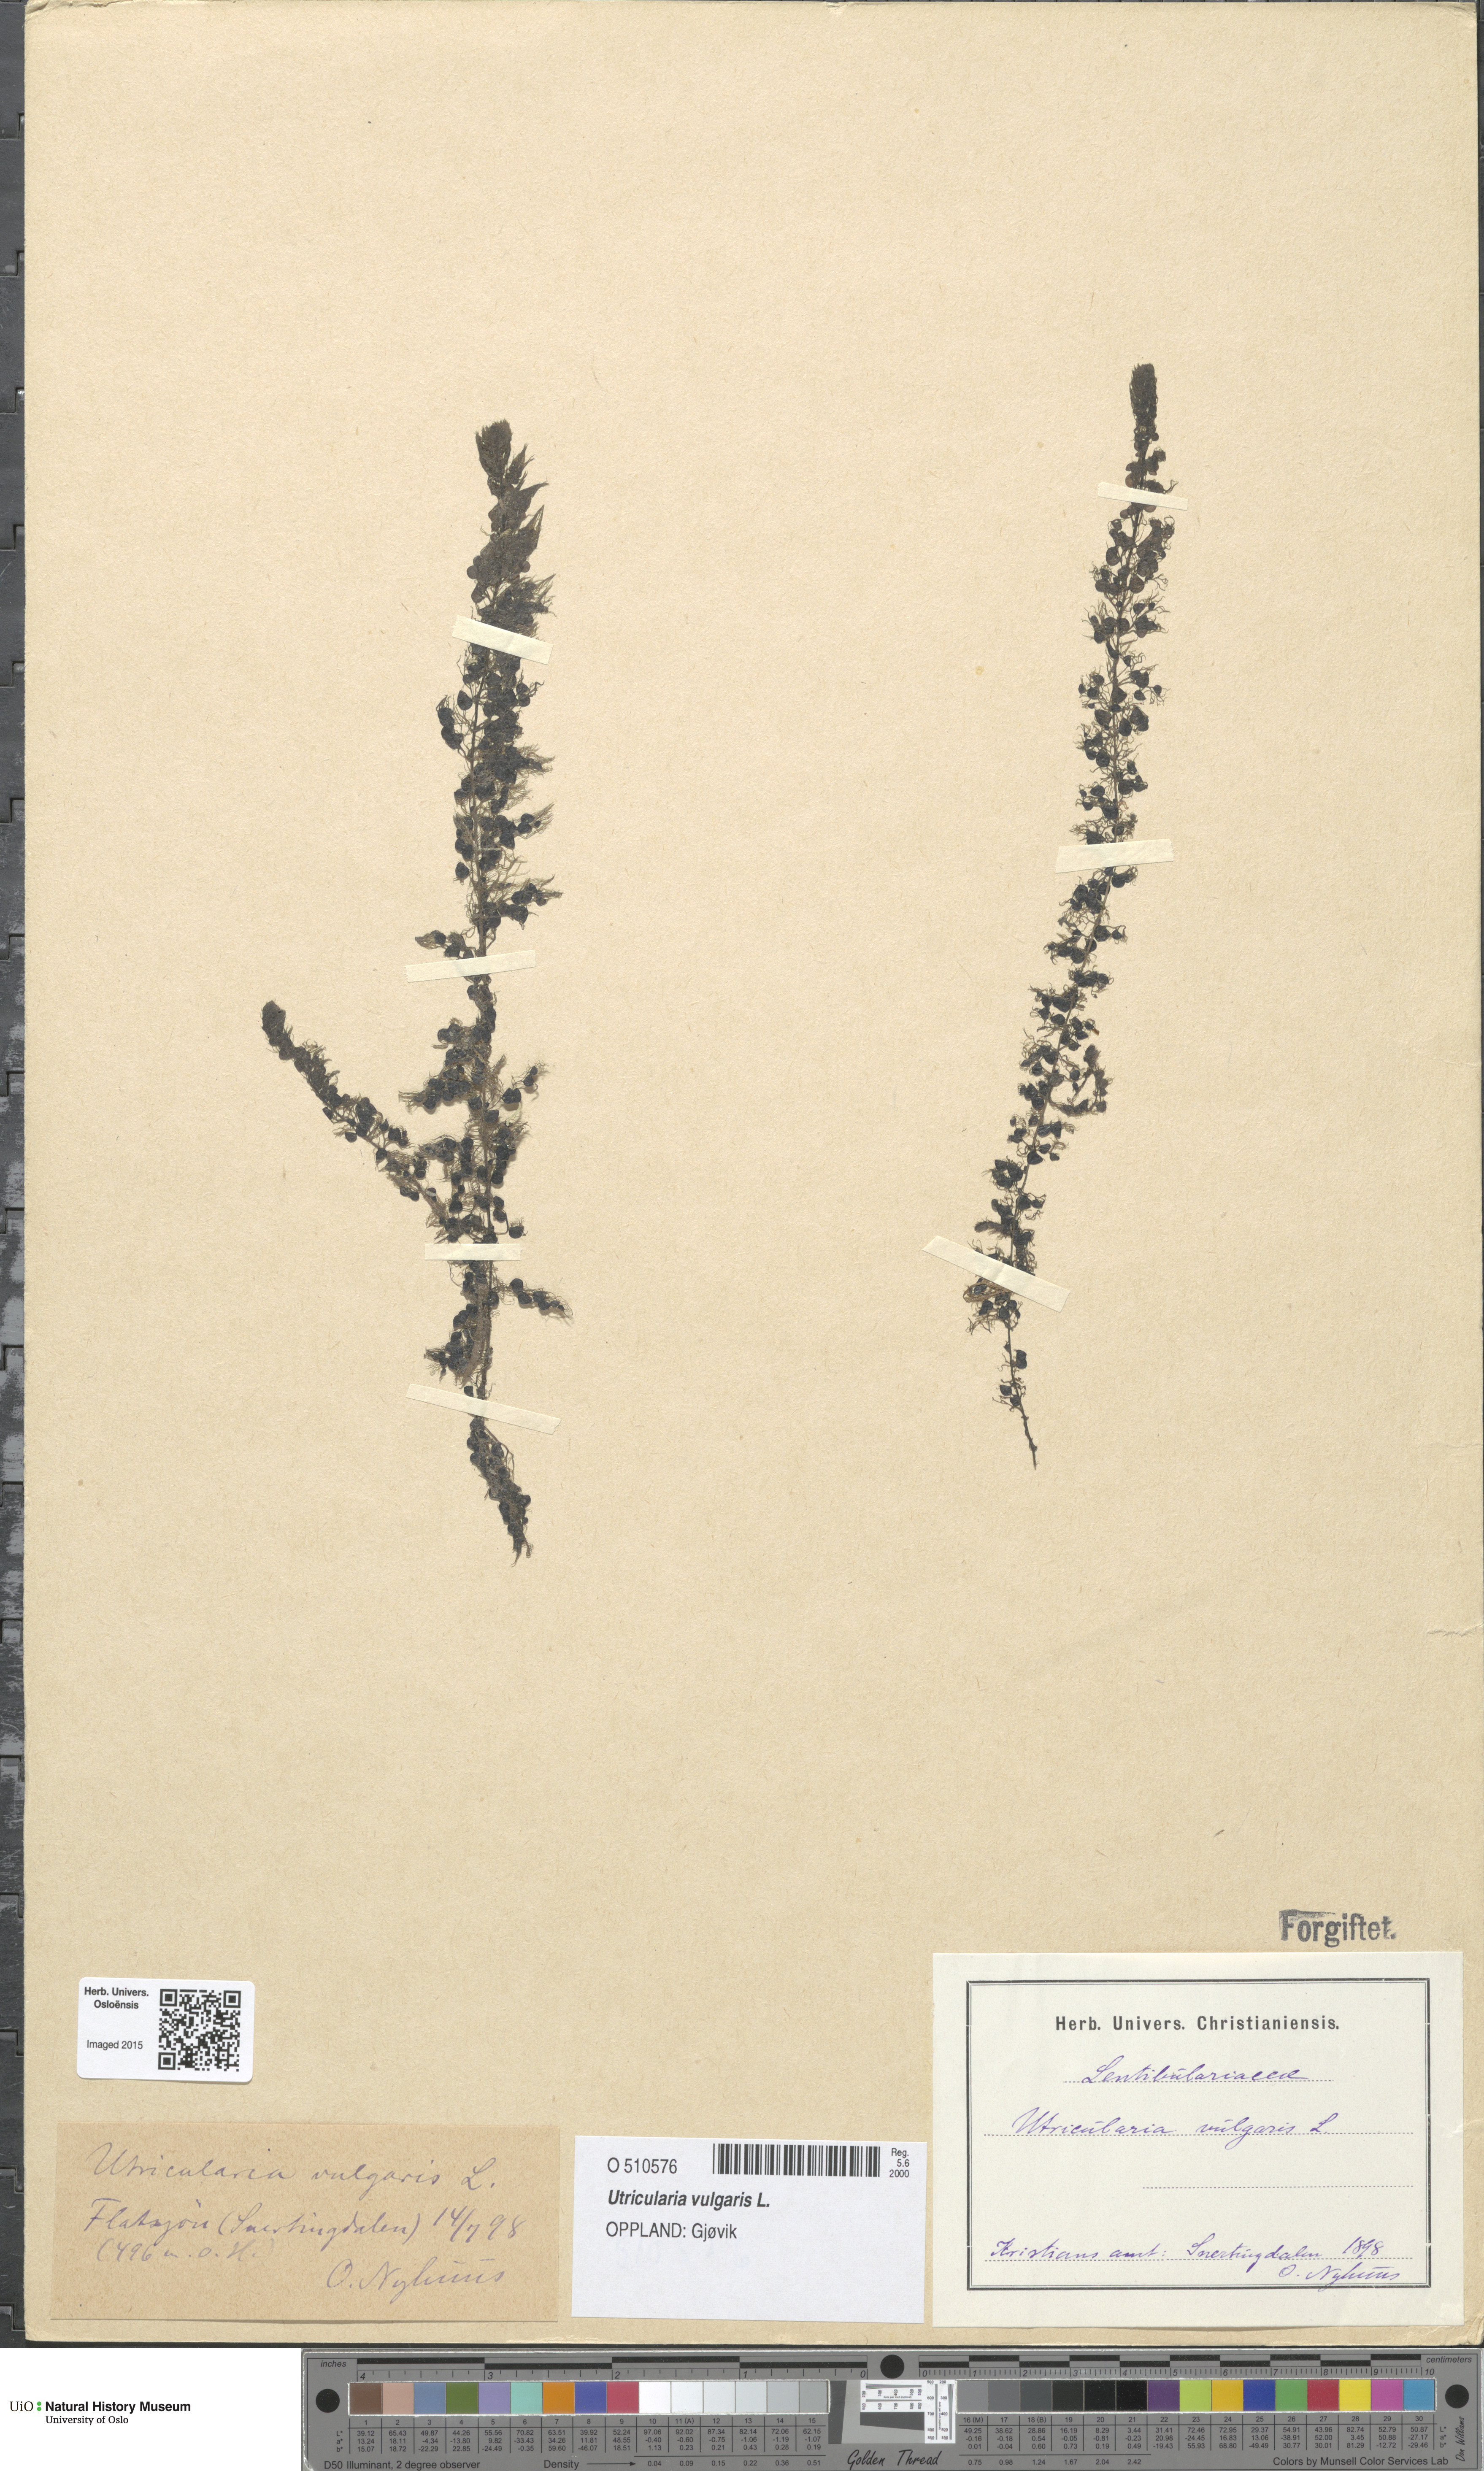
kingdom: Plantae
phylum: Tracheophyta
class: Magnoliopsida
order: Lamiales
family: Lentibulariaceae
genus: Utricularia
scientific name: Utricularia vulgaris
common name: Greater bladderwort
